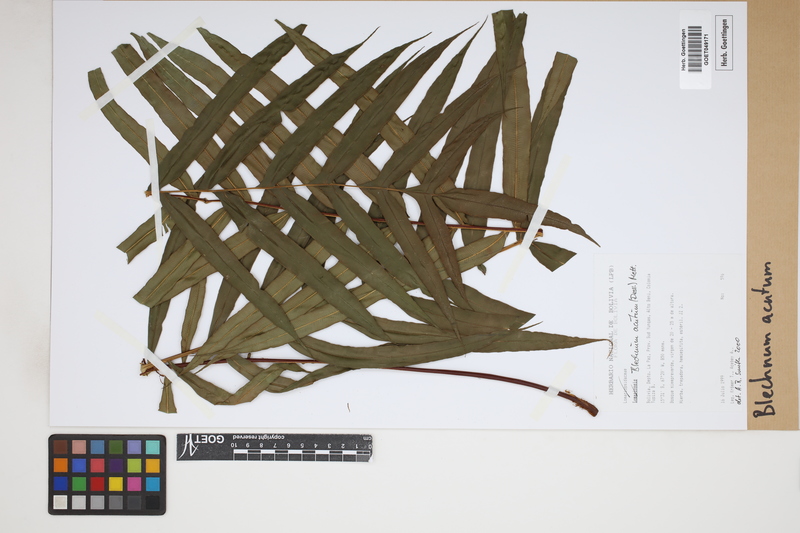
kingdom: Plantae
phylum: Tracheophyta
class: Polypodiopsida
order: Polypodiales
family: Blechnaceae
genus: Lomaridium
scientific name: Lomaridium acutum
